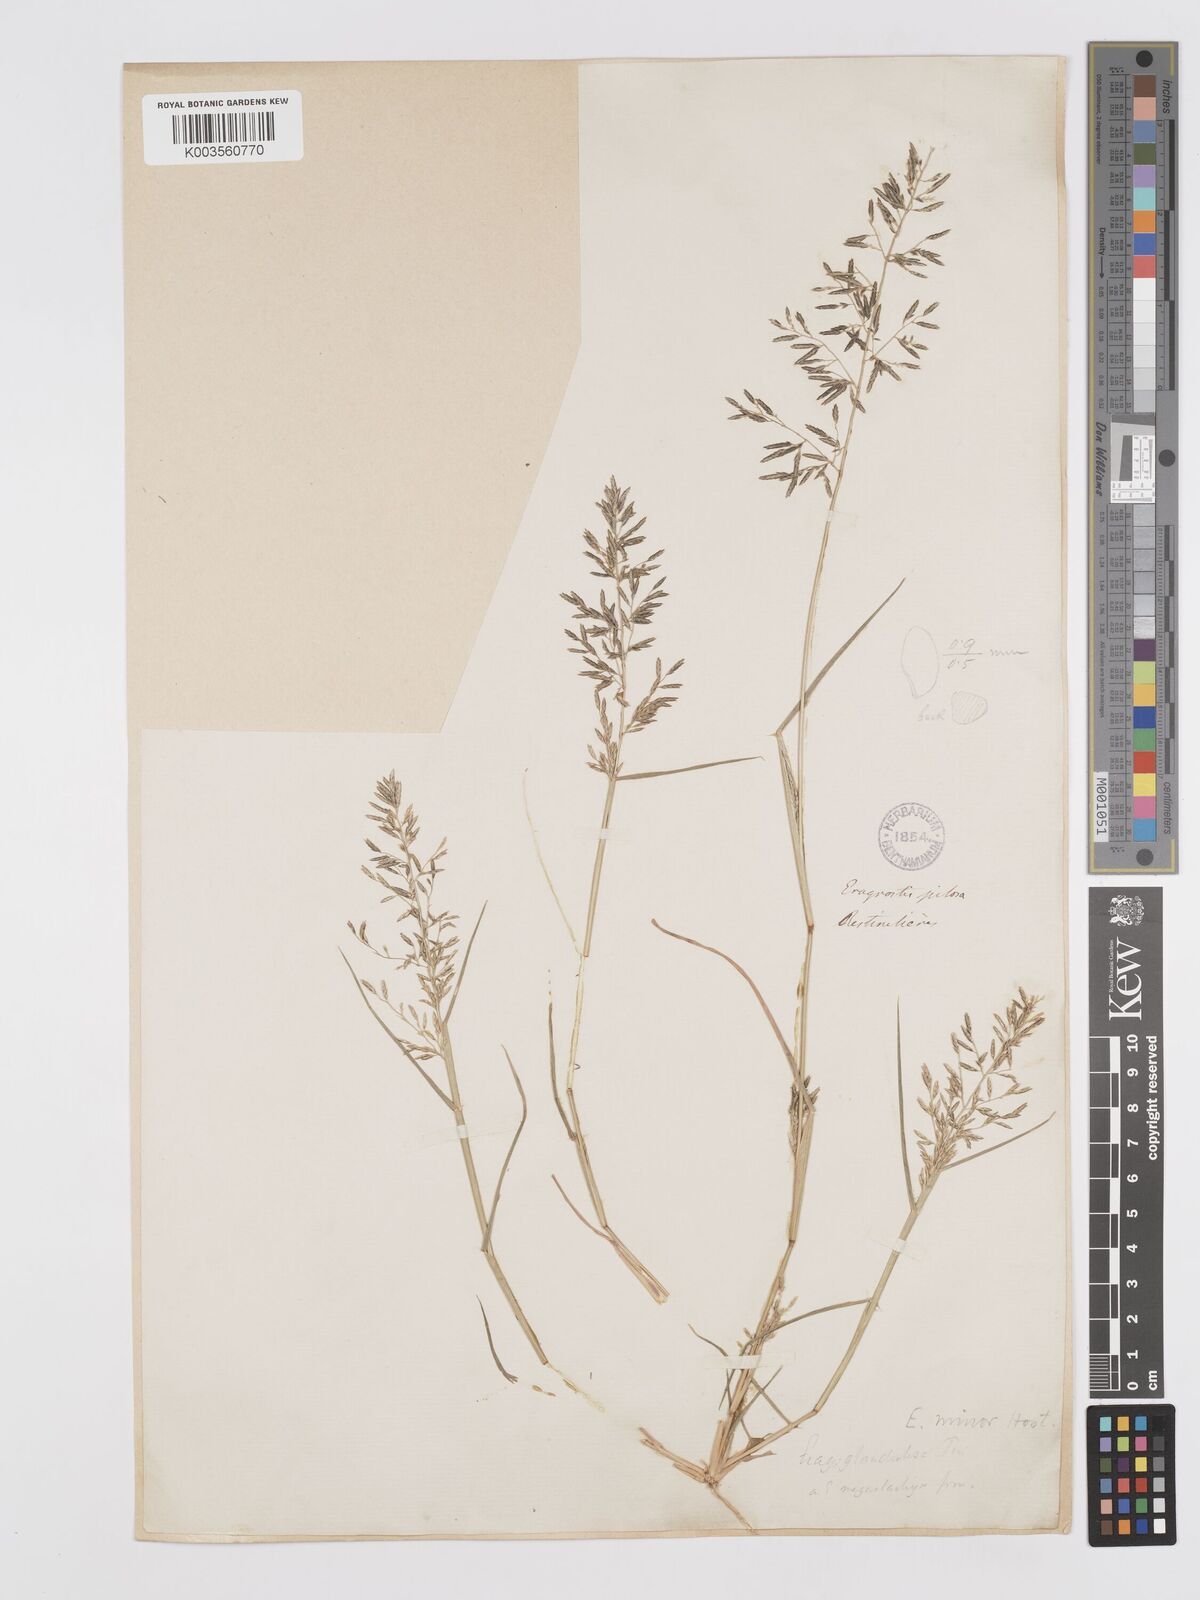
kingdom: Plantae
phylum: Tracheophyta
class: Liliopsida
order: Poales
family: Poaceae
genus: Eragrostis
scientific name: Eragrostis barrelieri
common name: Mediterranean lovegrass
